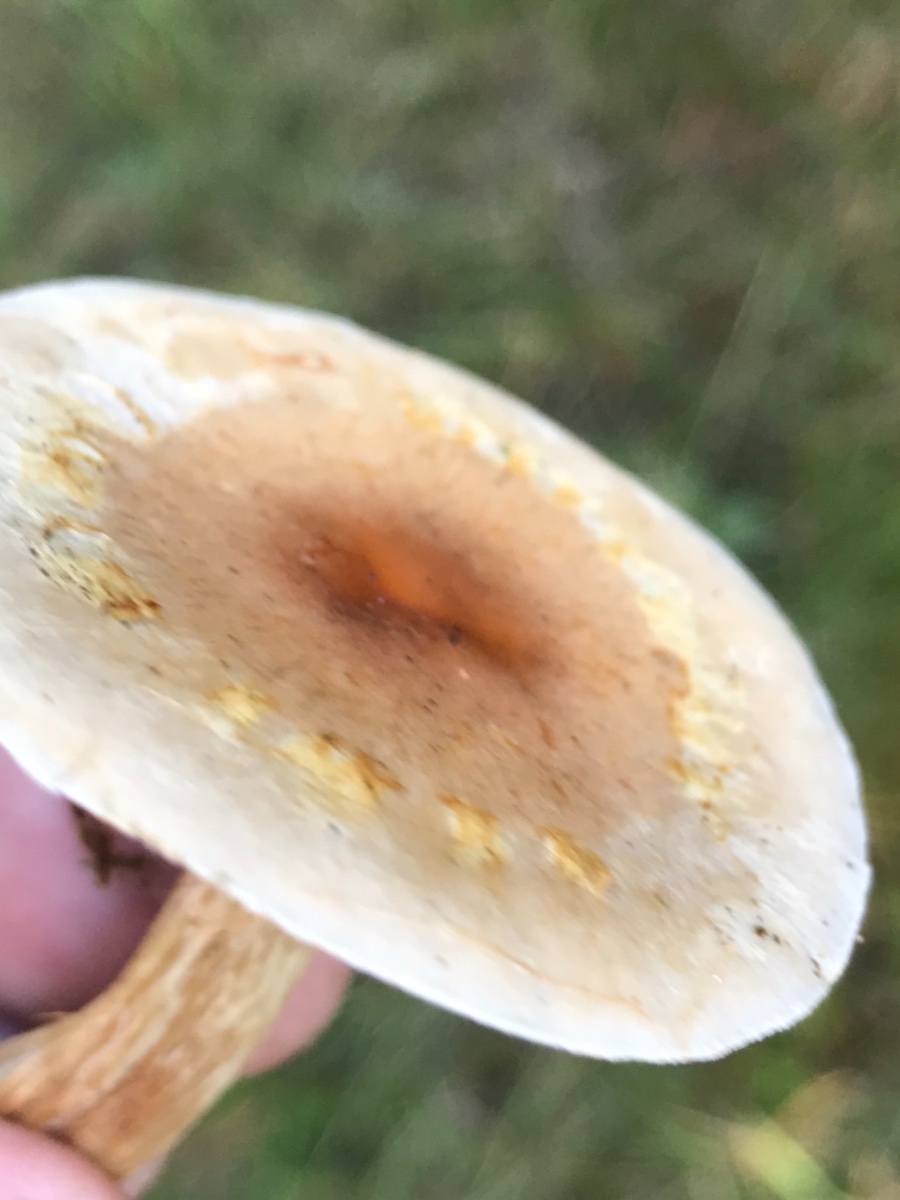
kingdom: Fungi
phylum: Basidiomycota
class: Agaricomycetes
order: Agaricales
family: Hymenogastraceae
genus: Hebeloma
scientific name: Hebeloma
